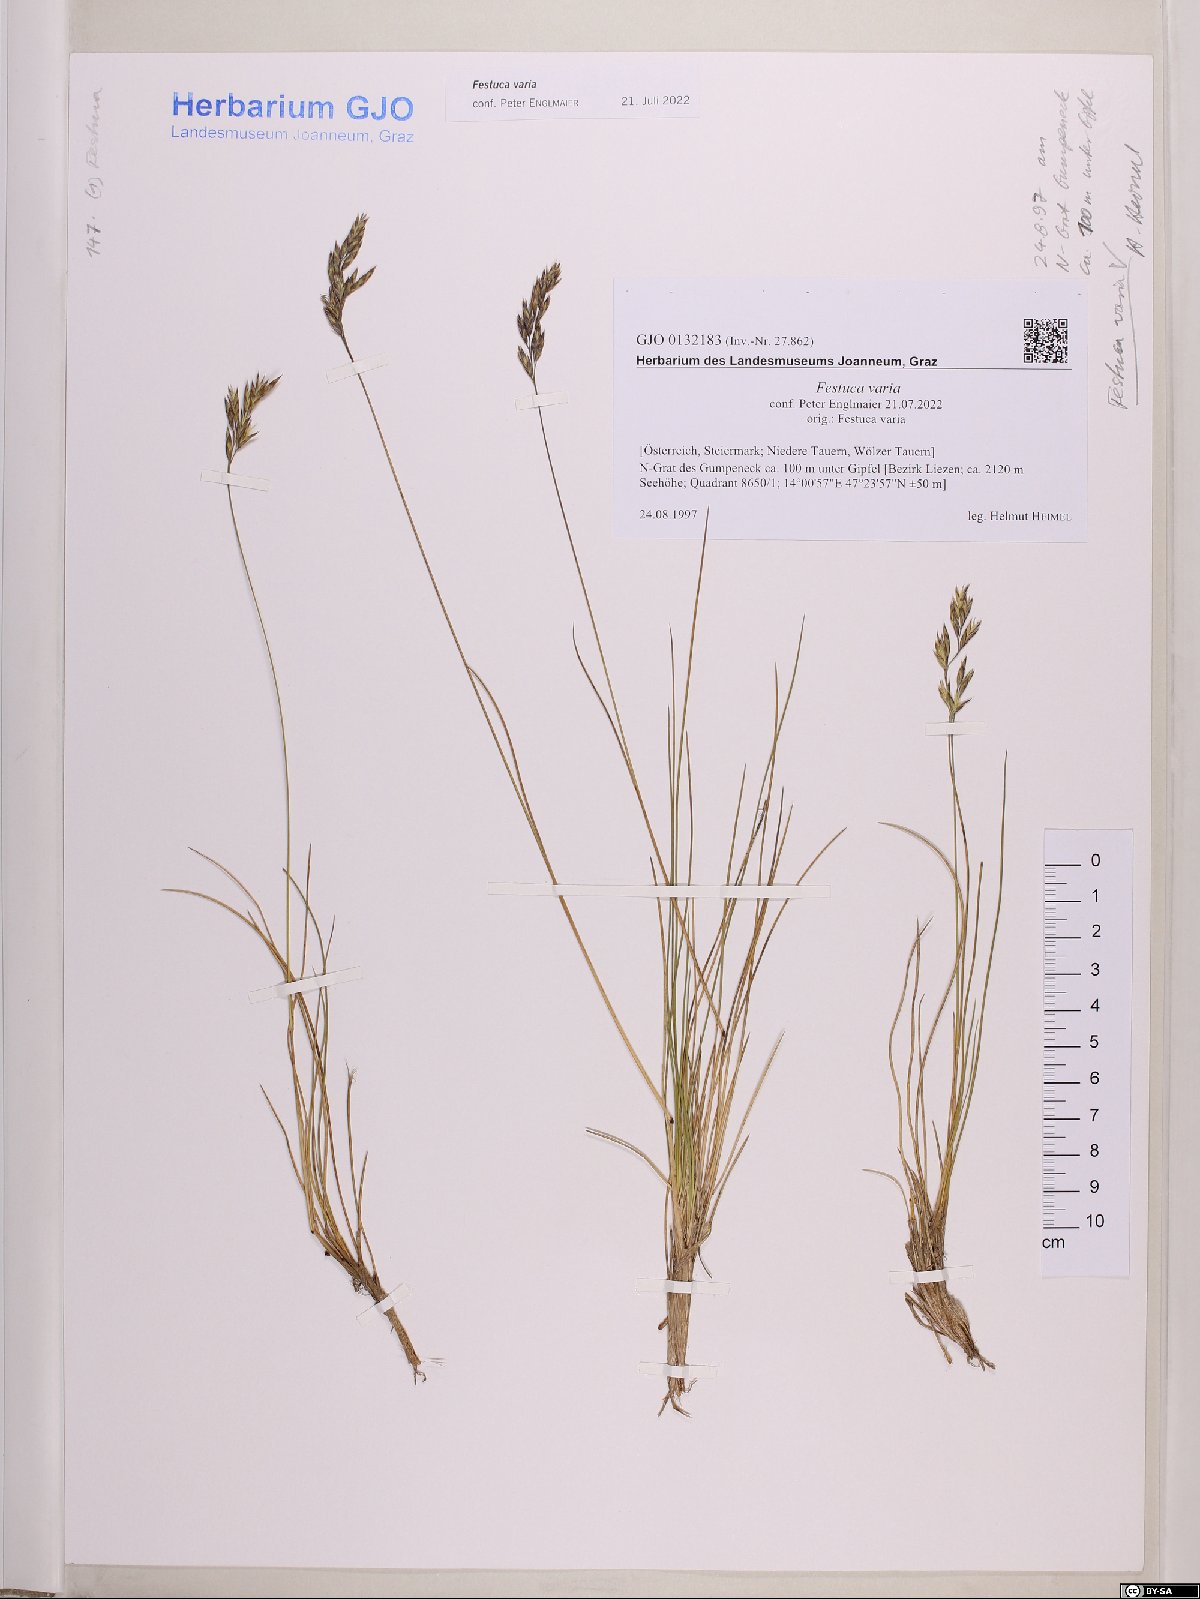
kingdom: Plantae
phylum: Tracheophyta
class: Liliopsida
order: Poales
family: Poaceae
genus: Festuca
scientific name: Festuca varia
